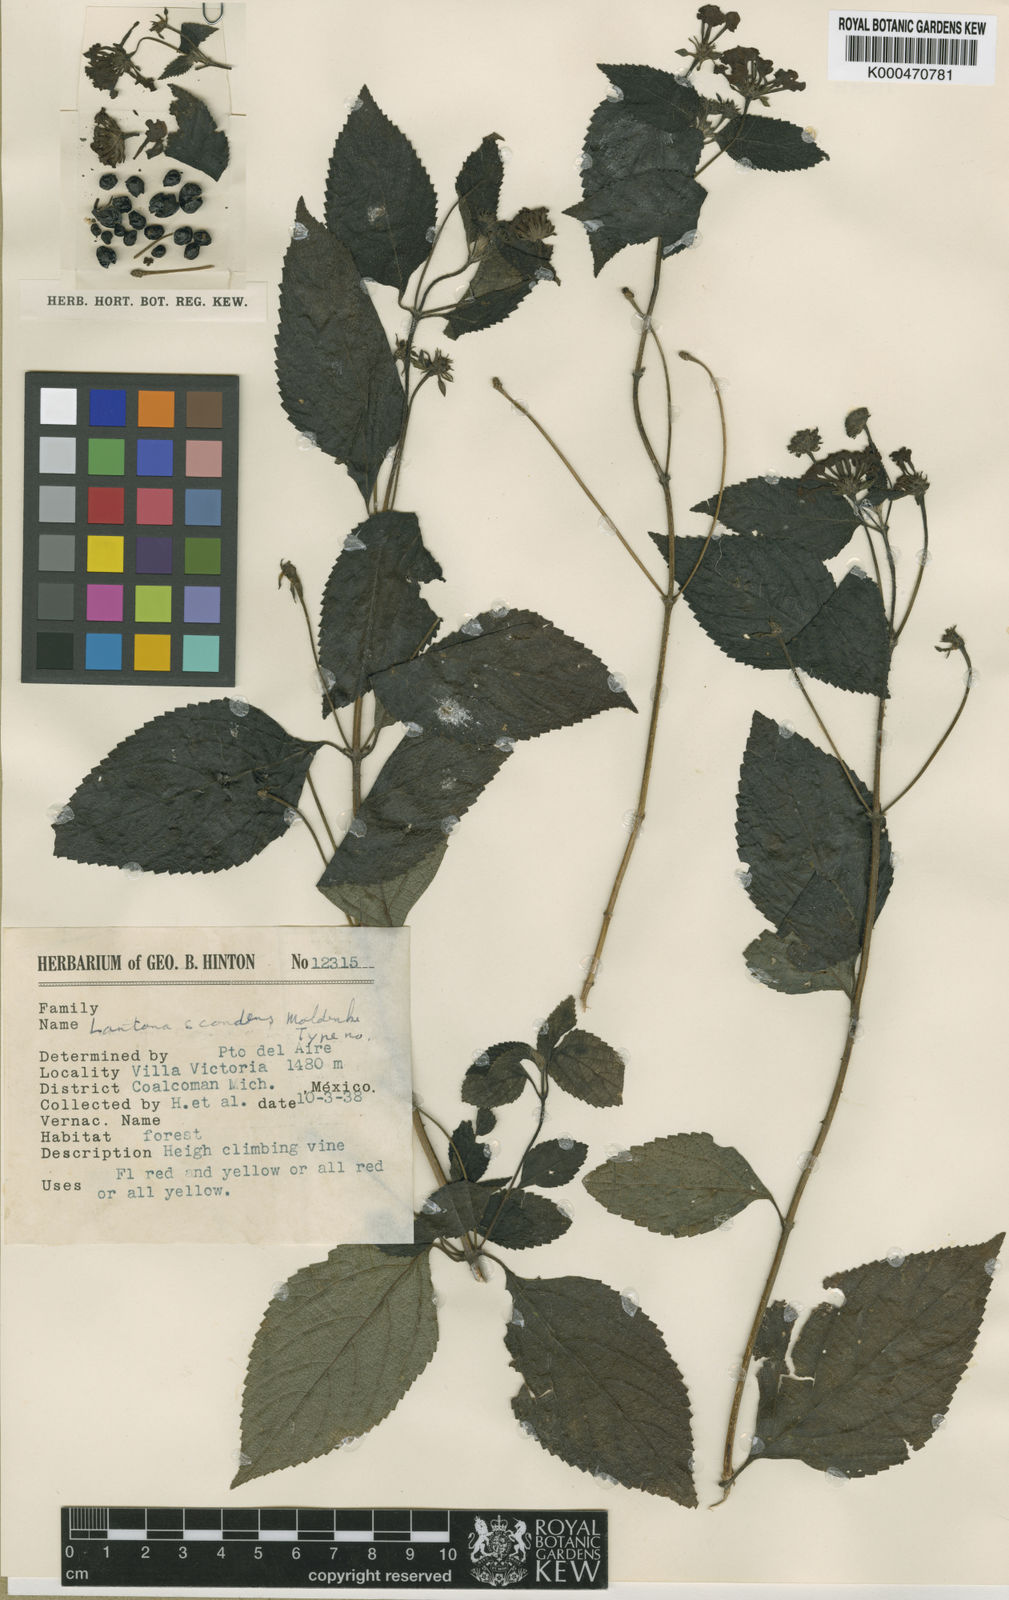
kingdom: Plantae
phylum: Tracheophyta
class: Magnoliopsida
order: Lamiales
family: Verbenaceae
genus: Lantana
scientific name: Lantana scabrida
